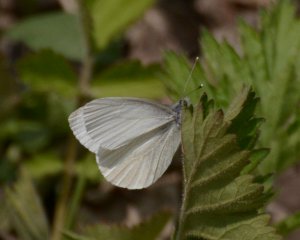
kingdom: Animalia
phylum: Arthropoda
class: Insecta
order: Lepidoptera
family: Pieridae
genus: Pieris
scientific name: Pieris virginiensis
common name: West Virginia White
